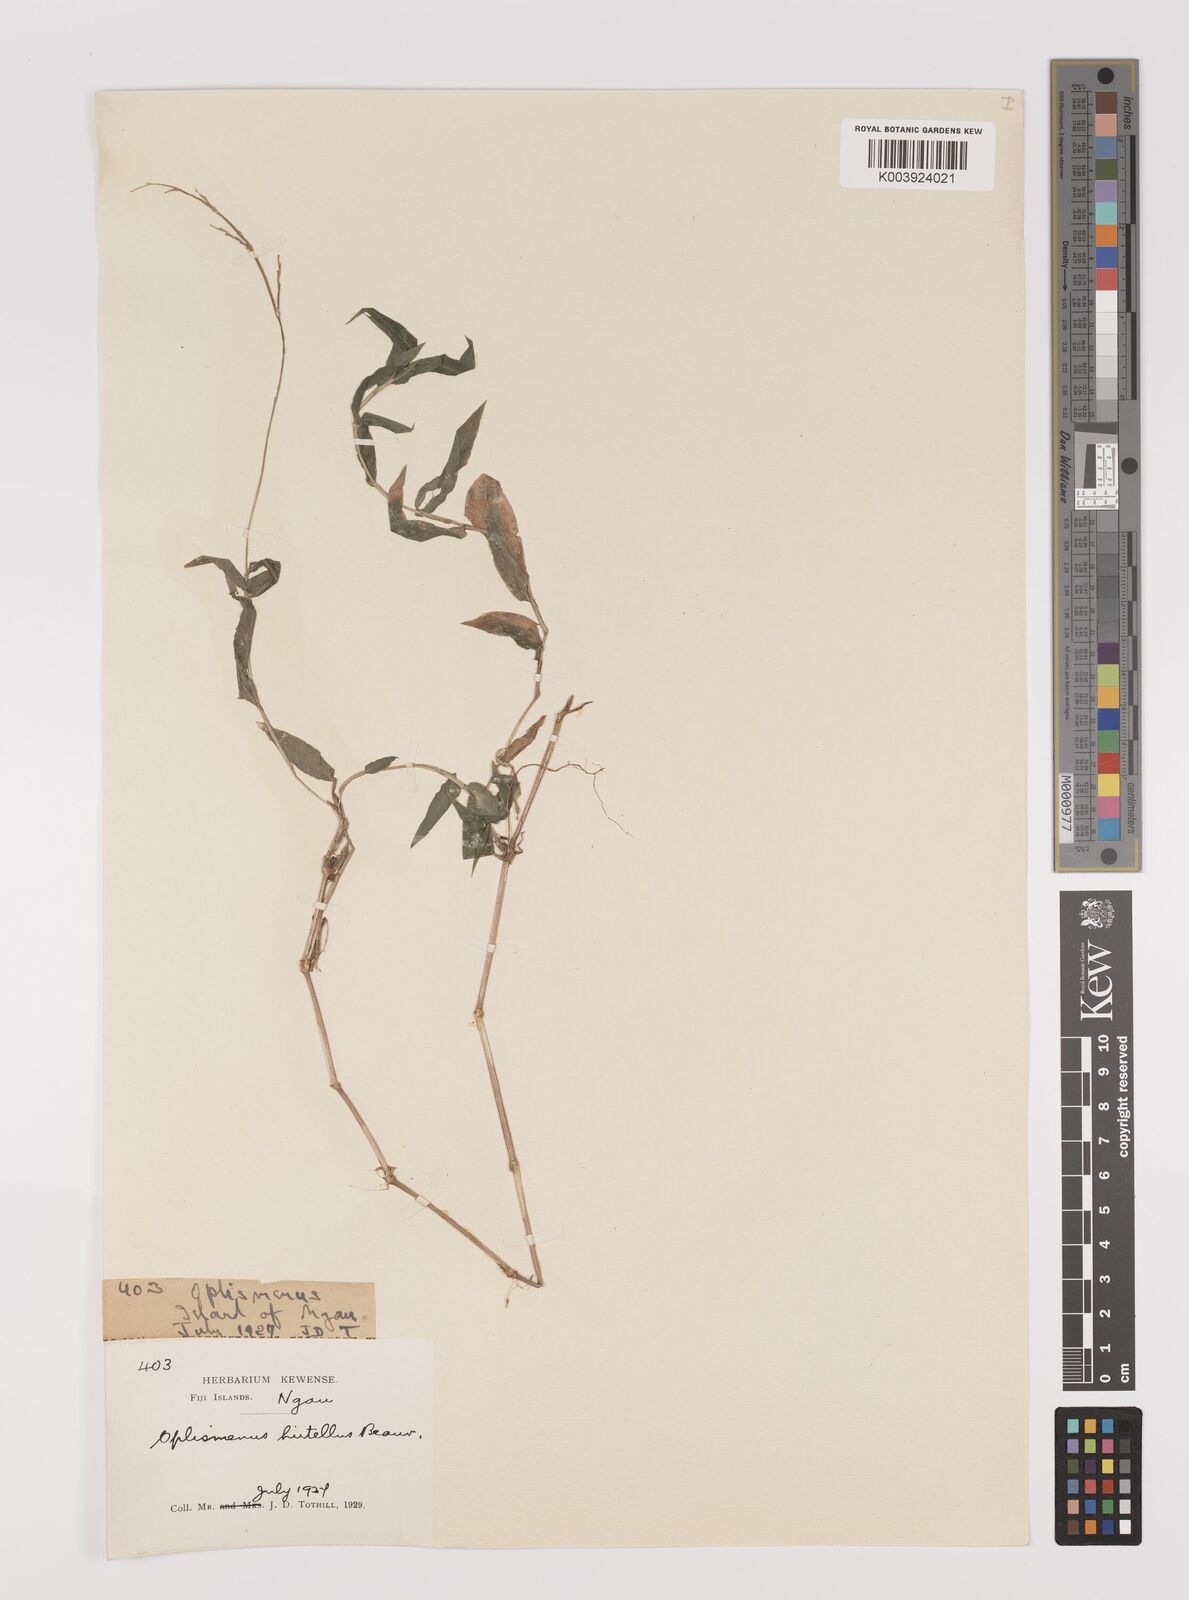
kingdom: Plantae
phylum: Tracheophyta
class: Liliopsida
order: Poales
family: Poaceae
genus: Oplismenus
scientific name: Oplismenus hirtellus
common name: Basketgrass
